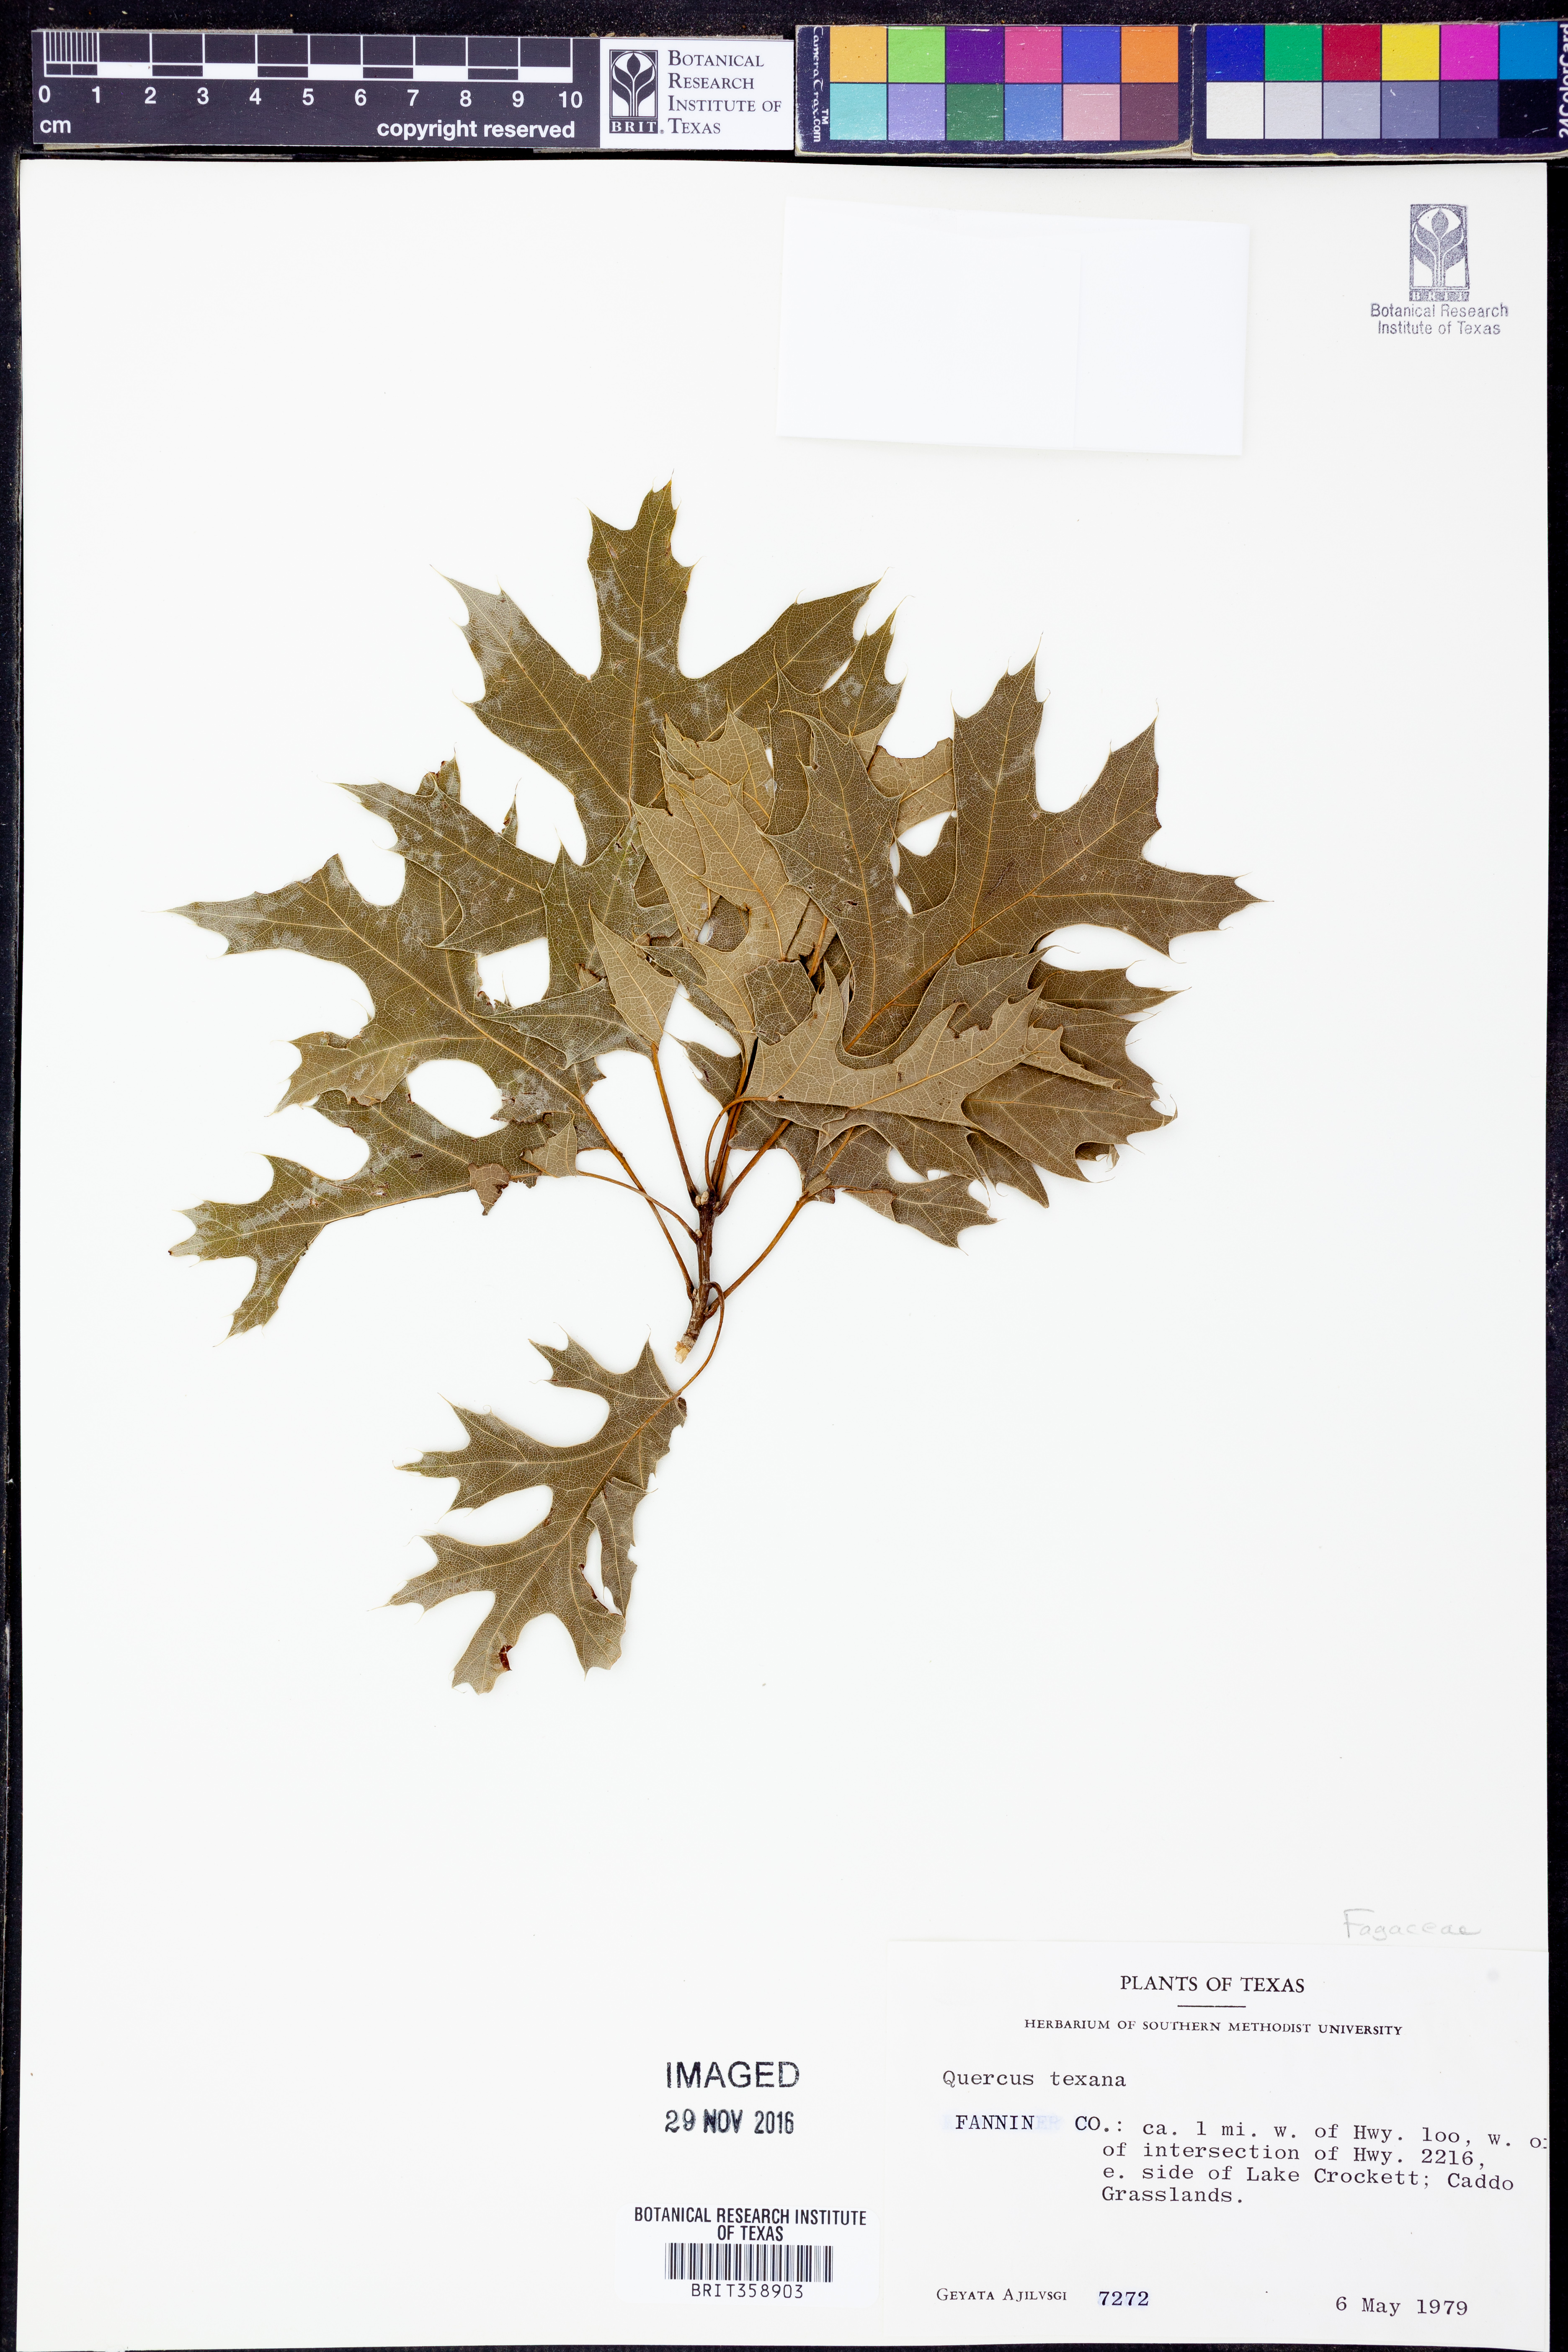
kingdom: Plantae
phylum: Tracheophyta
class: Magnoliopsida
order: Fagales
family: Fagaceae
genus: Quercus
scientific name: Quercus texana
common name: Nuttall oak
